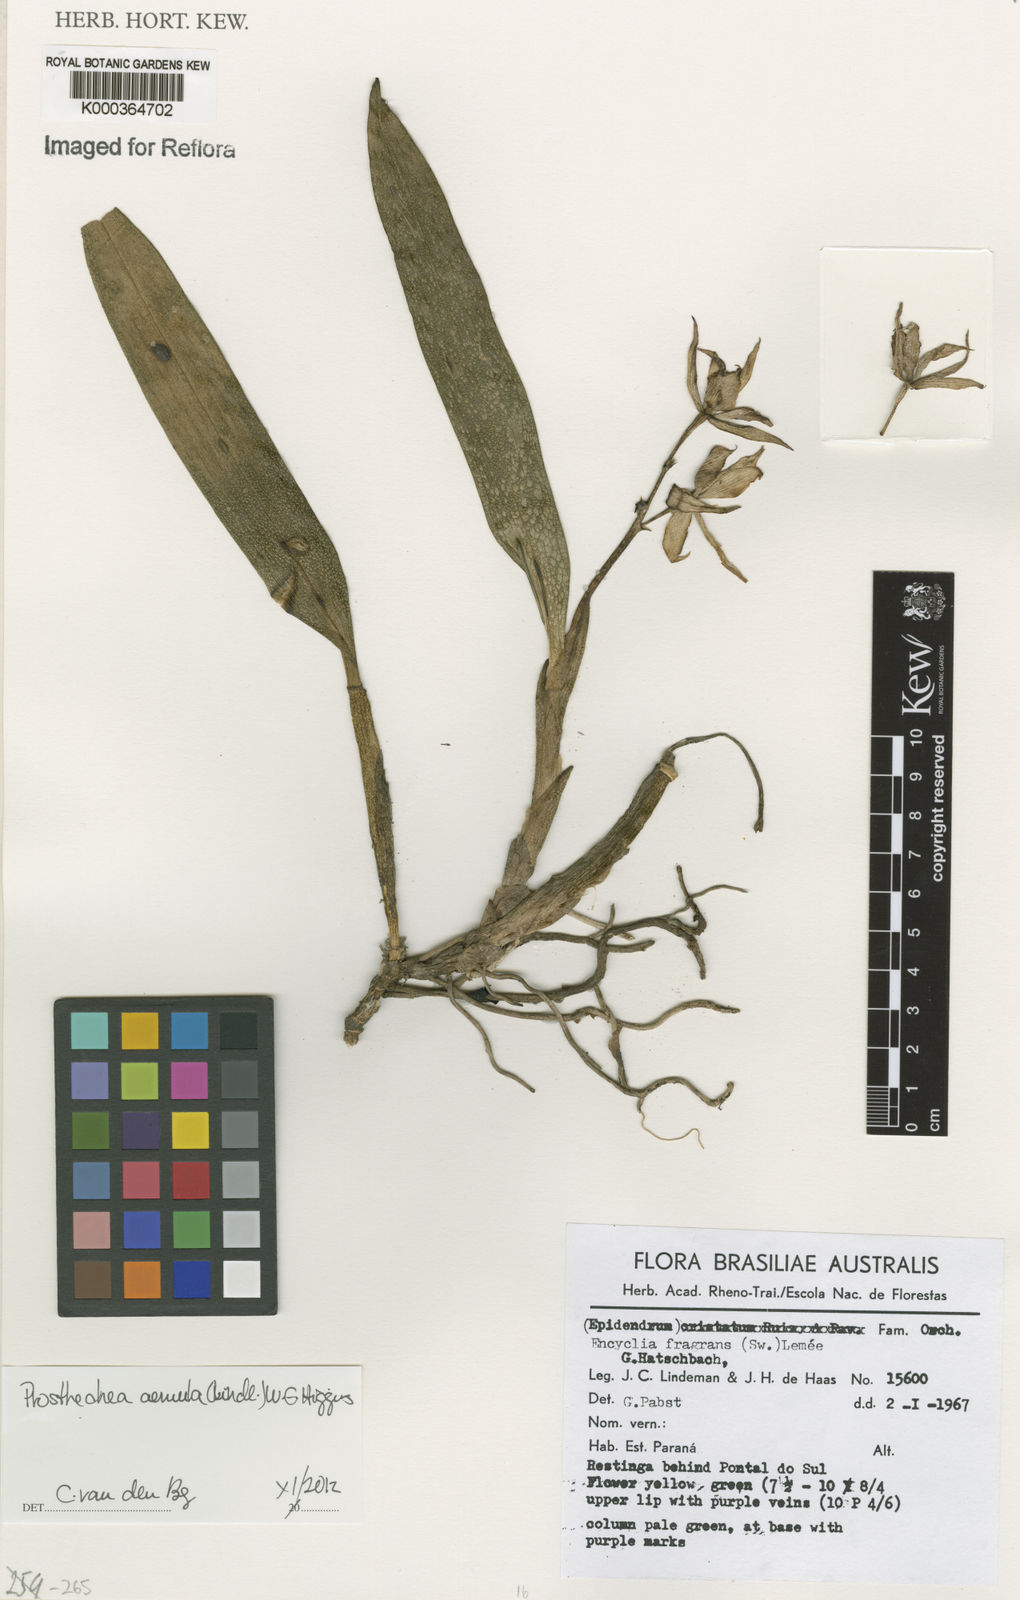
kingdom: Plantae
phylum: Tracheophyta
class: Liliopsida
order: Asparagales
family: Orchidaceae
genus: Encyclia
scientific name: Encyclia
